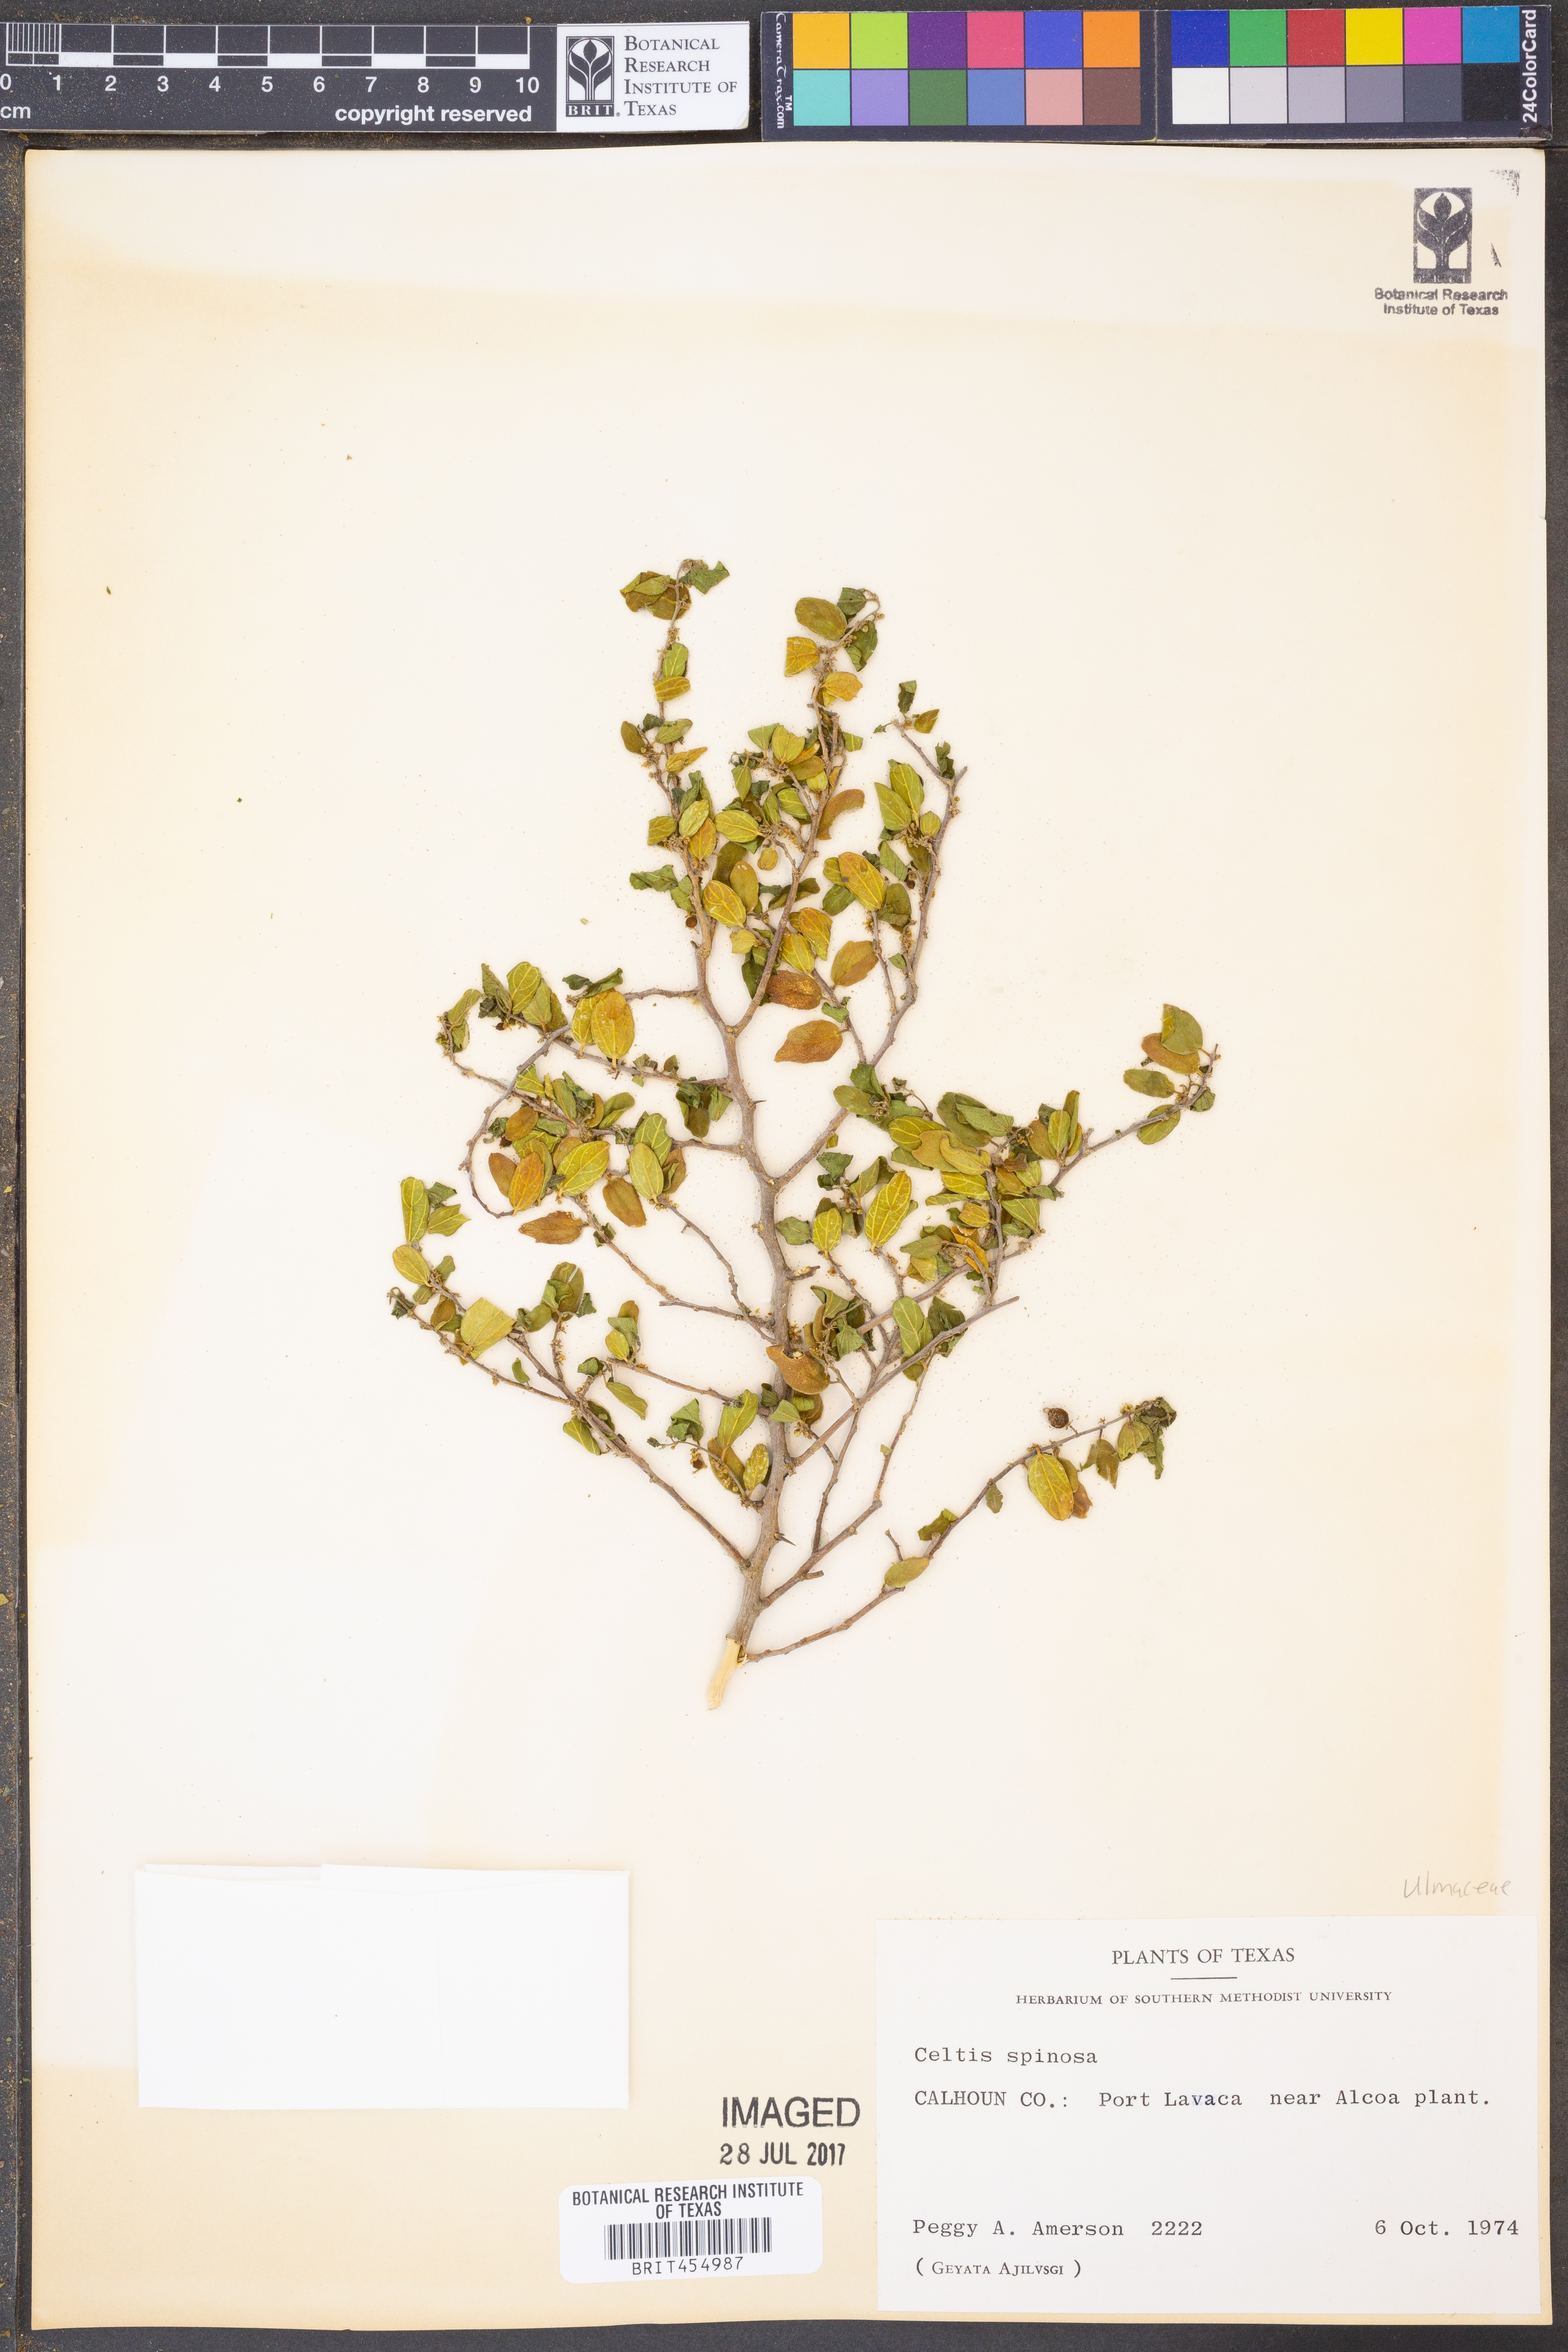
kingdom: Plantae
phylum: Tracheophyta
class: Magnoliopsida
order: Rosales
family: Cannabaceae
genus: Celtis
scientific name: Celtis spinosa
